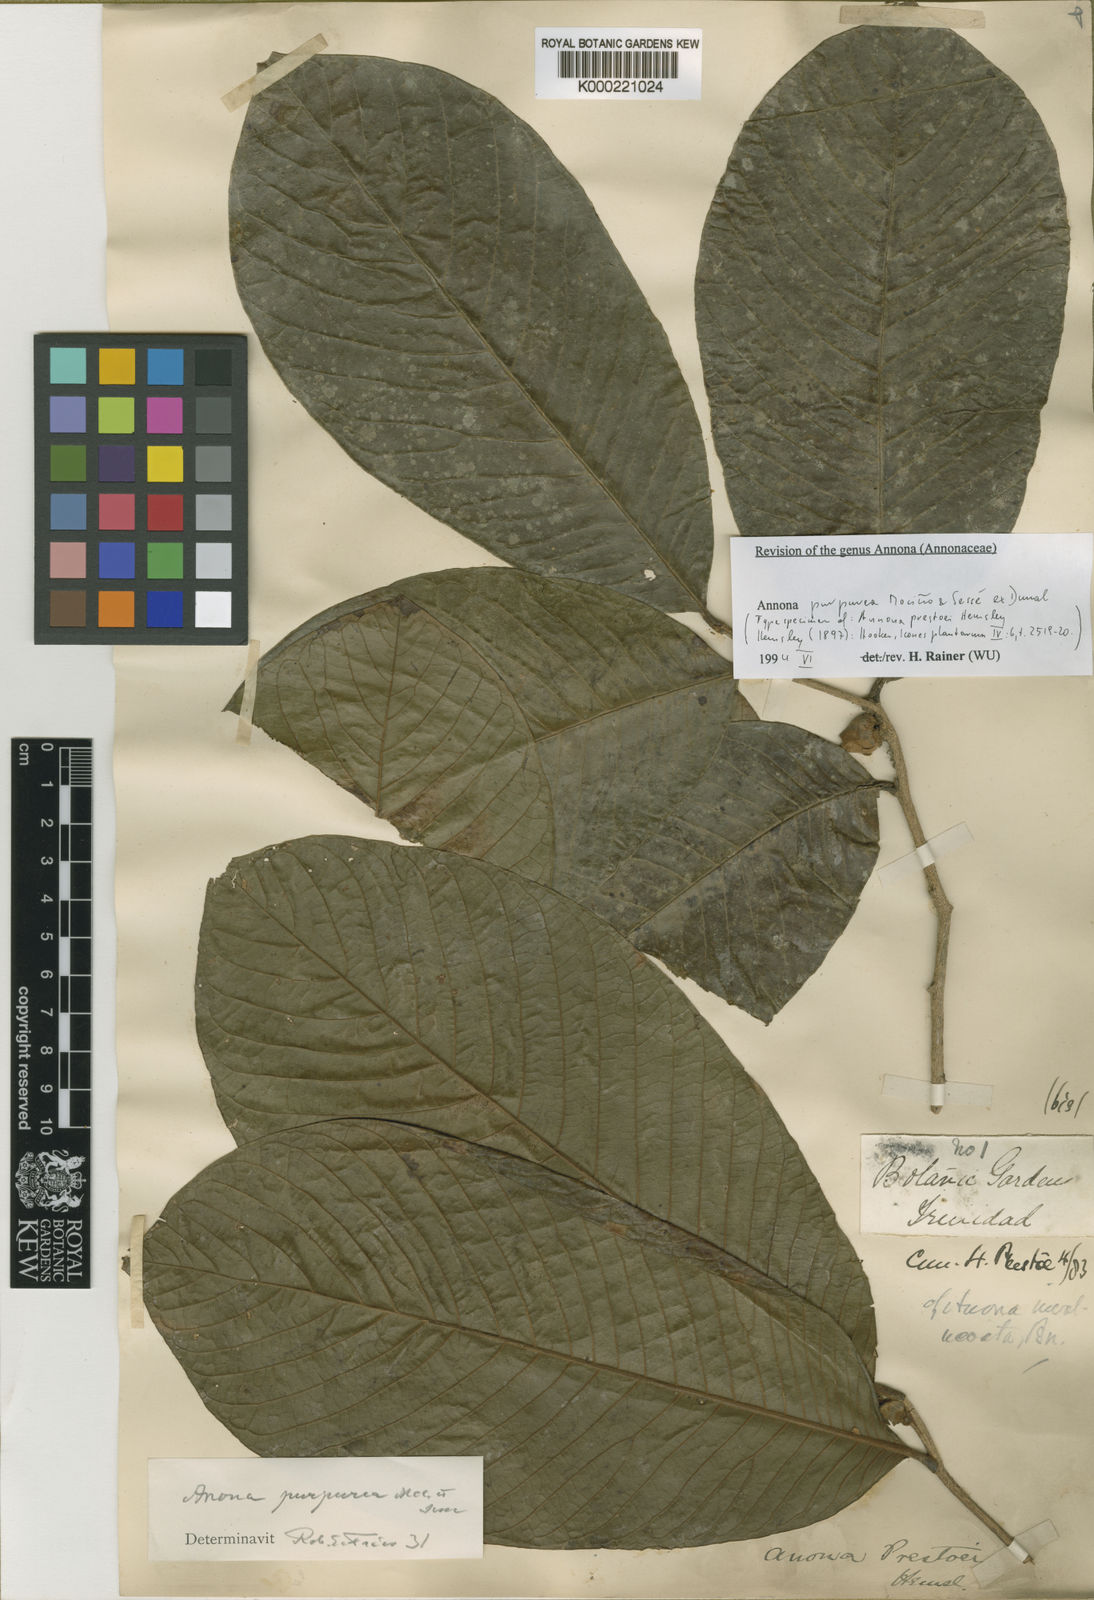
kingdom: Plantae
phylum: Tracheophyta
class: Magnoliopsida
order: Magnoliales
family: Annonaceae
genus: Annona
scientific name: Annona
